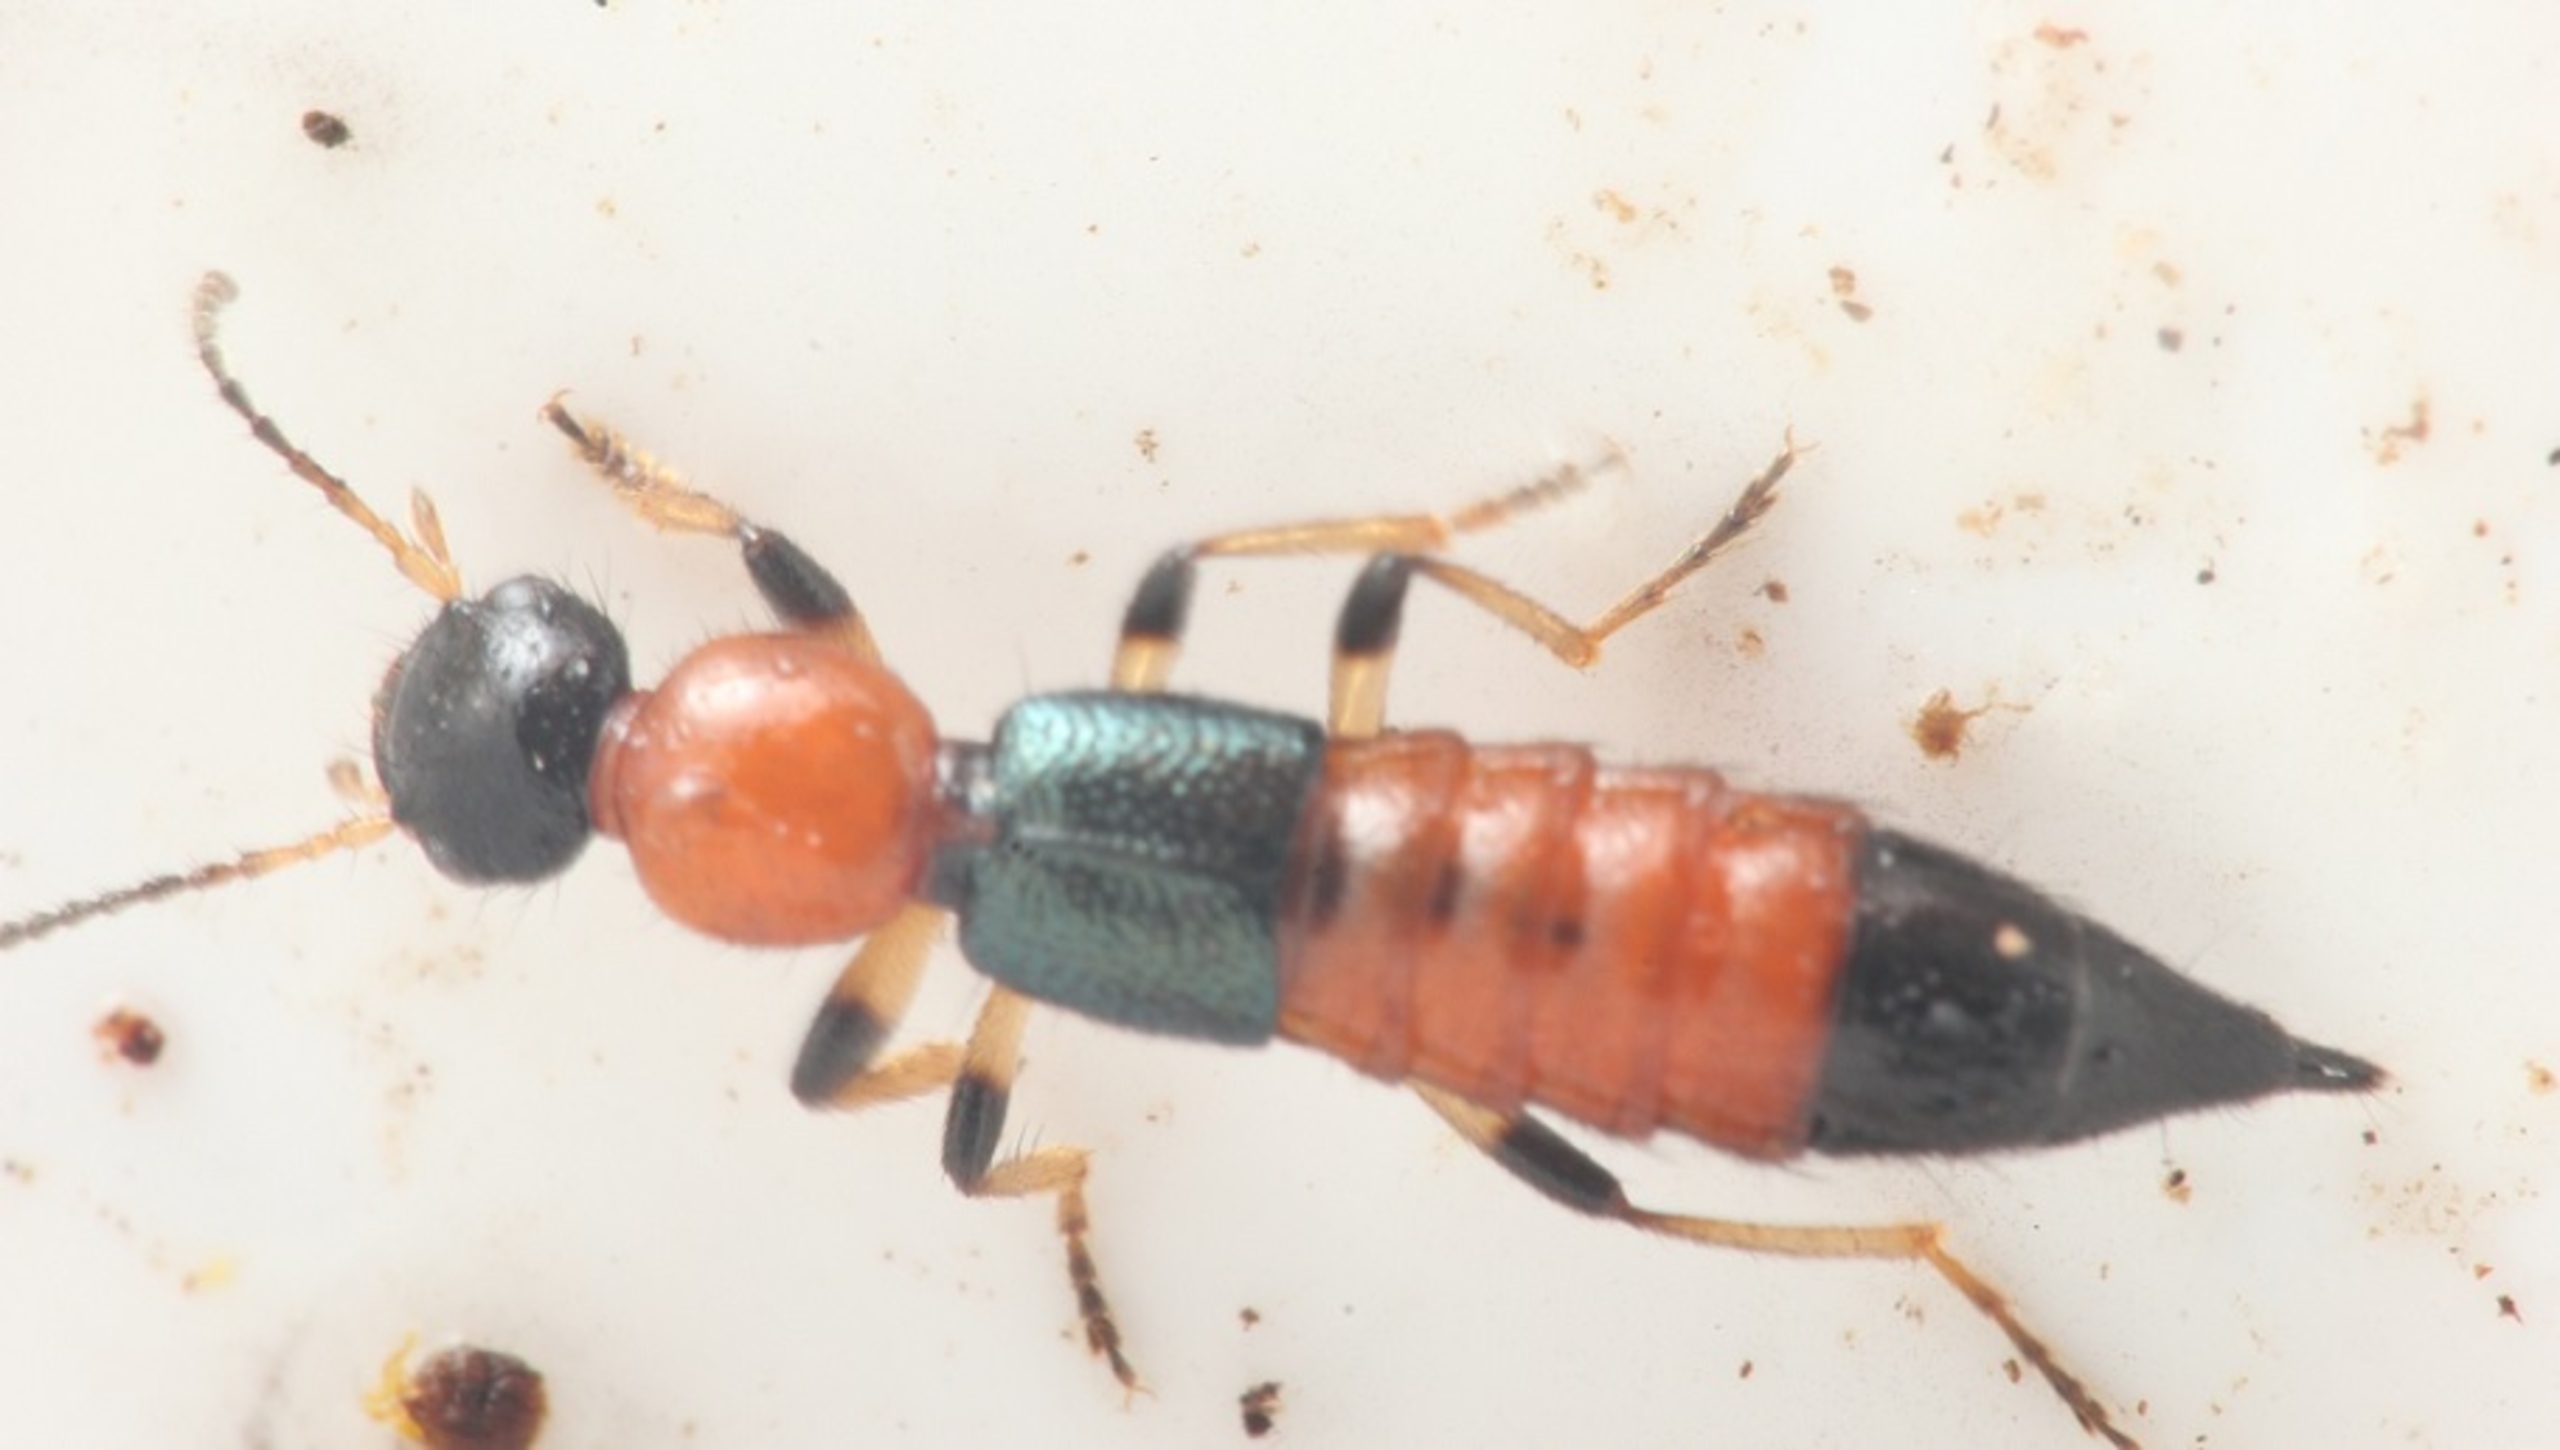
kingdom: Animalia
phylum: Arthropoda
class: Insecta
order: Coleoptera
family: Staphylinidae
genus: Paederus
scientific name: Paederus littoralis
